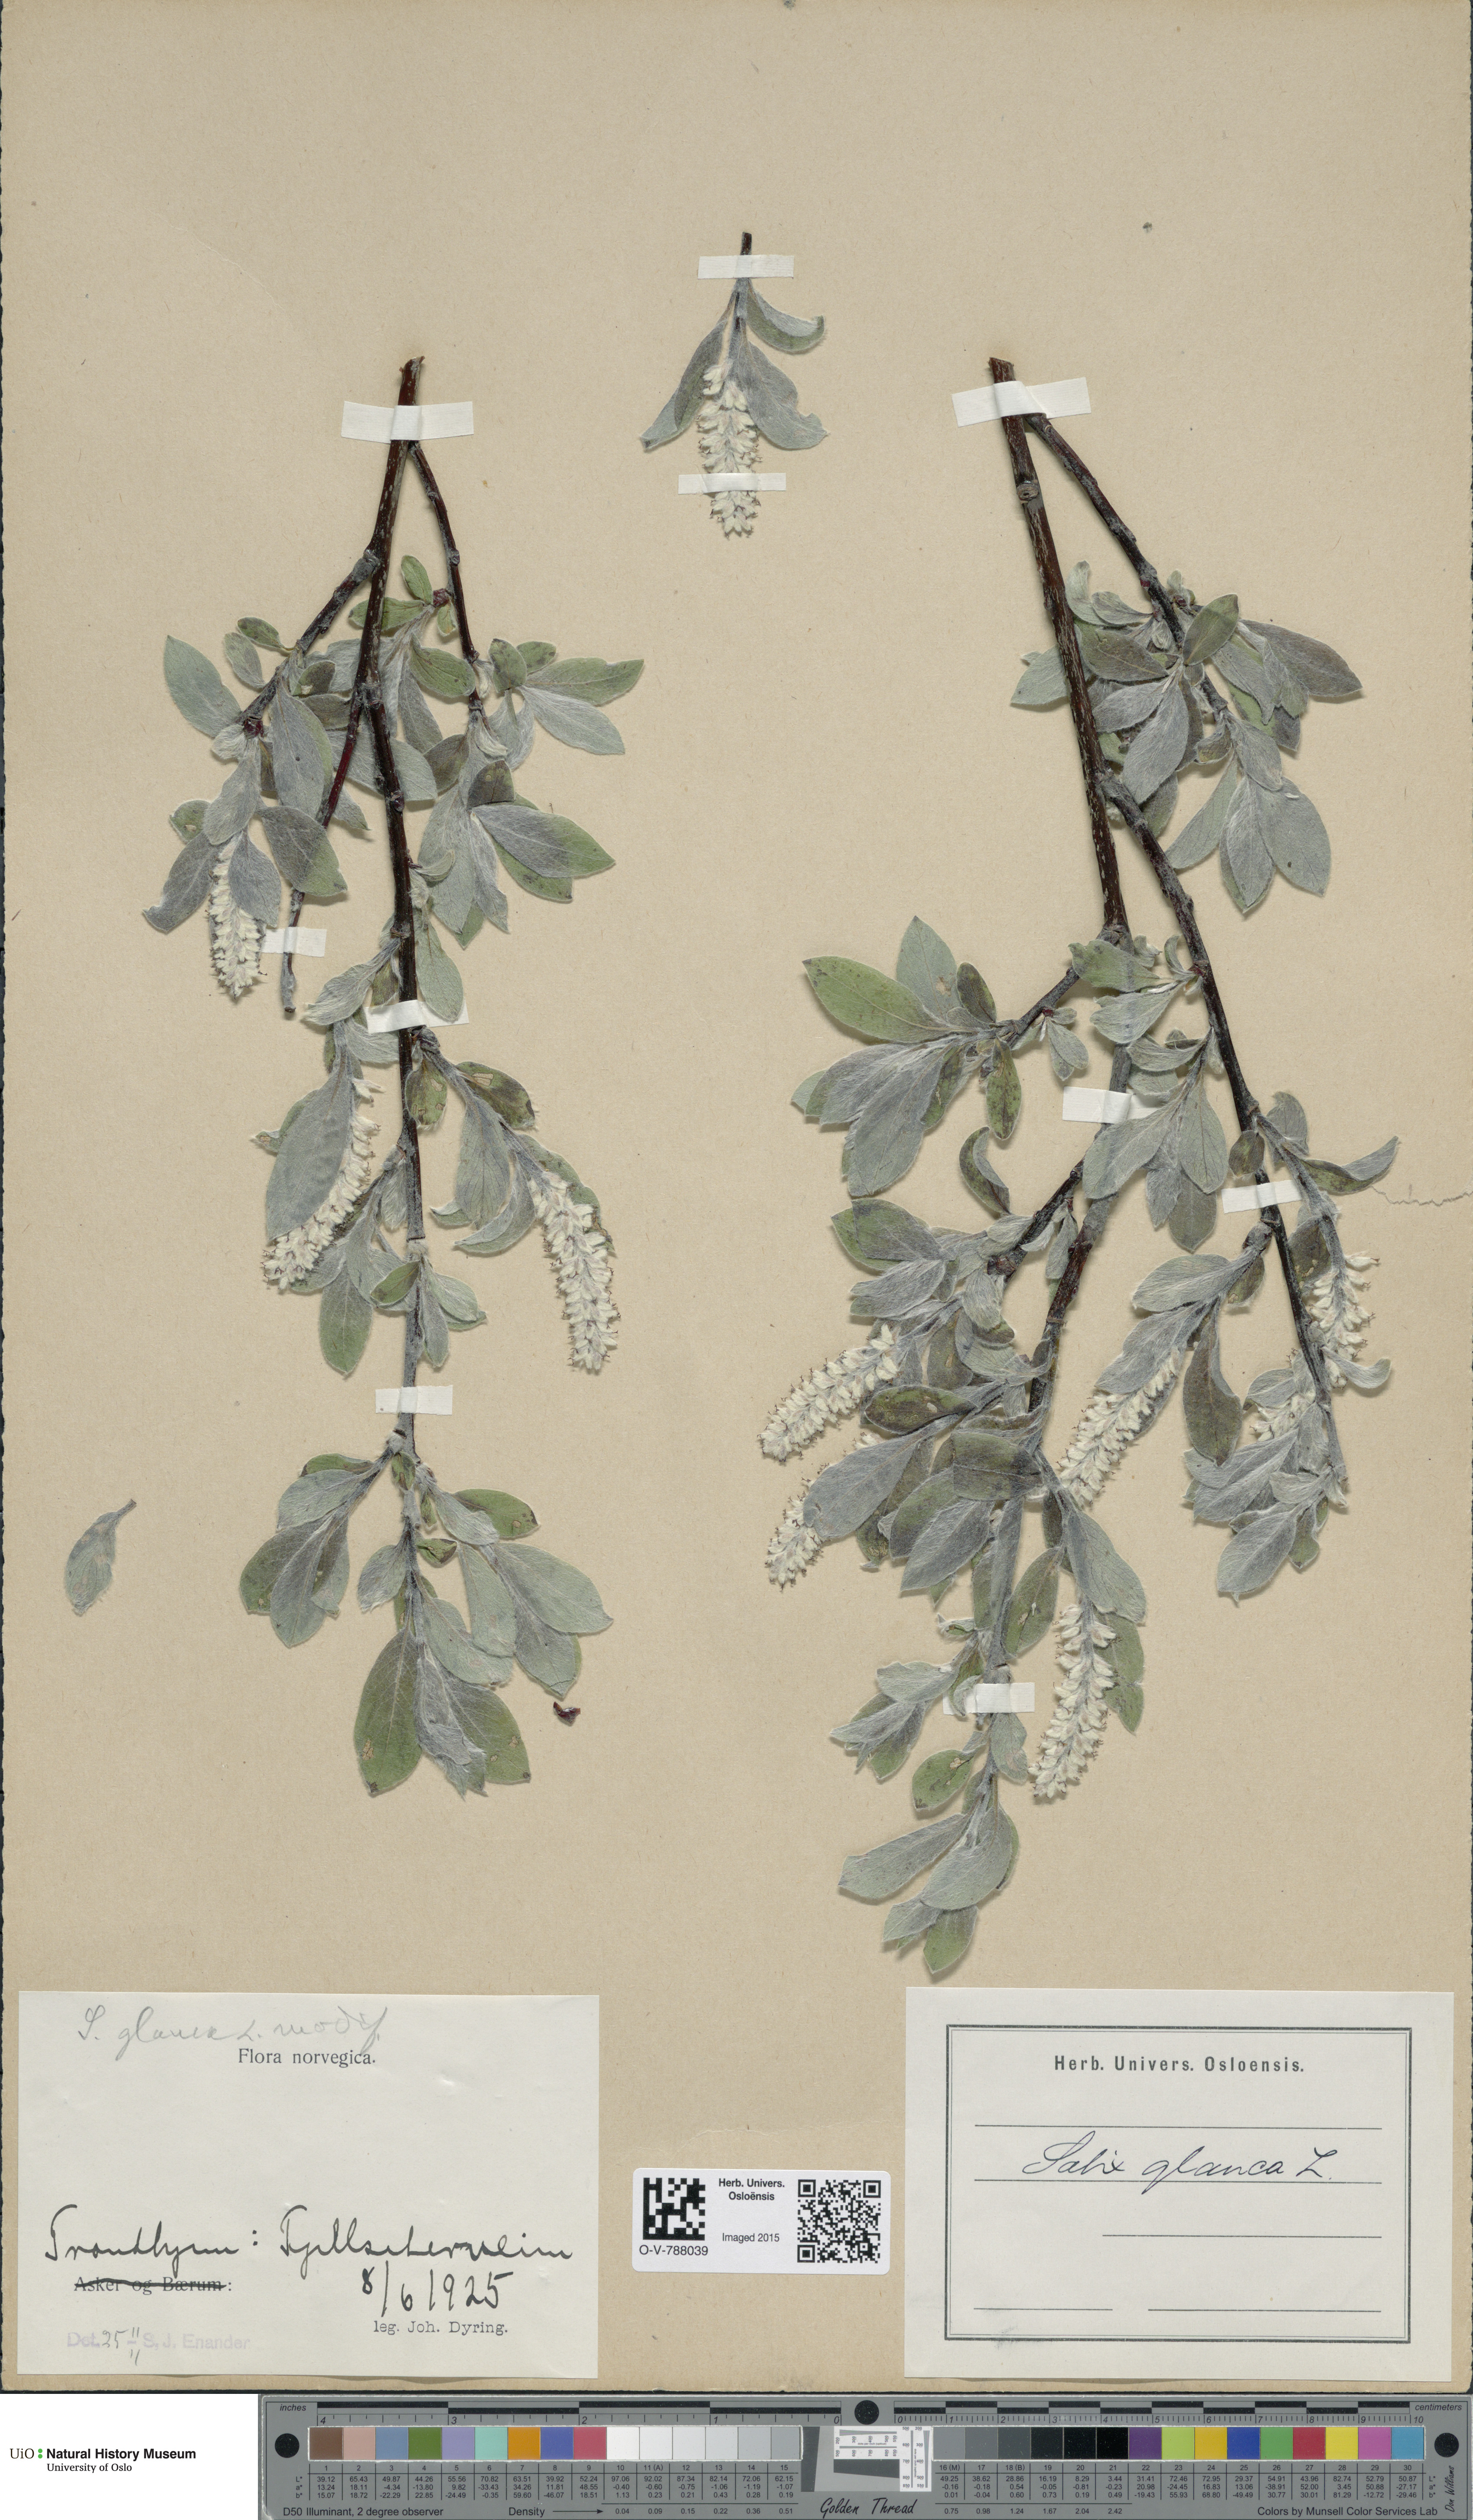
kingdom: Plantae
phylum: Tracheophyta
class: Magnoliopsida
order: Malpighiales
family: Salicaceae
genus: Salix
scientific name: Salix glauca
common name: Glaucous willow
